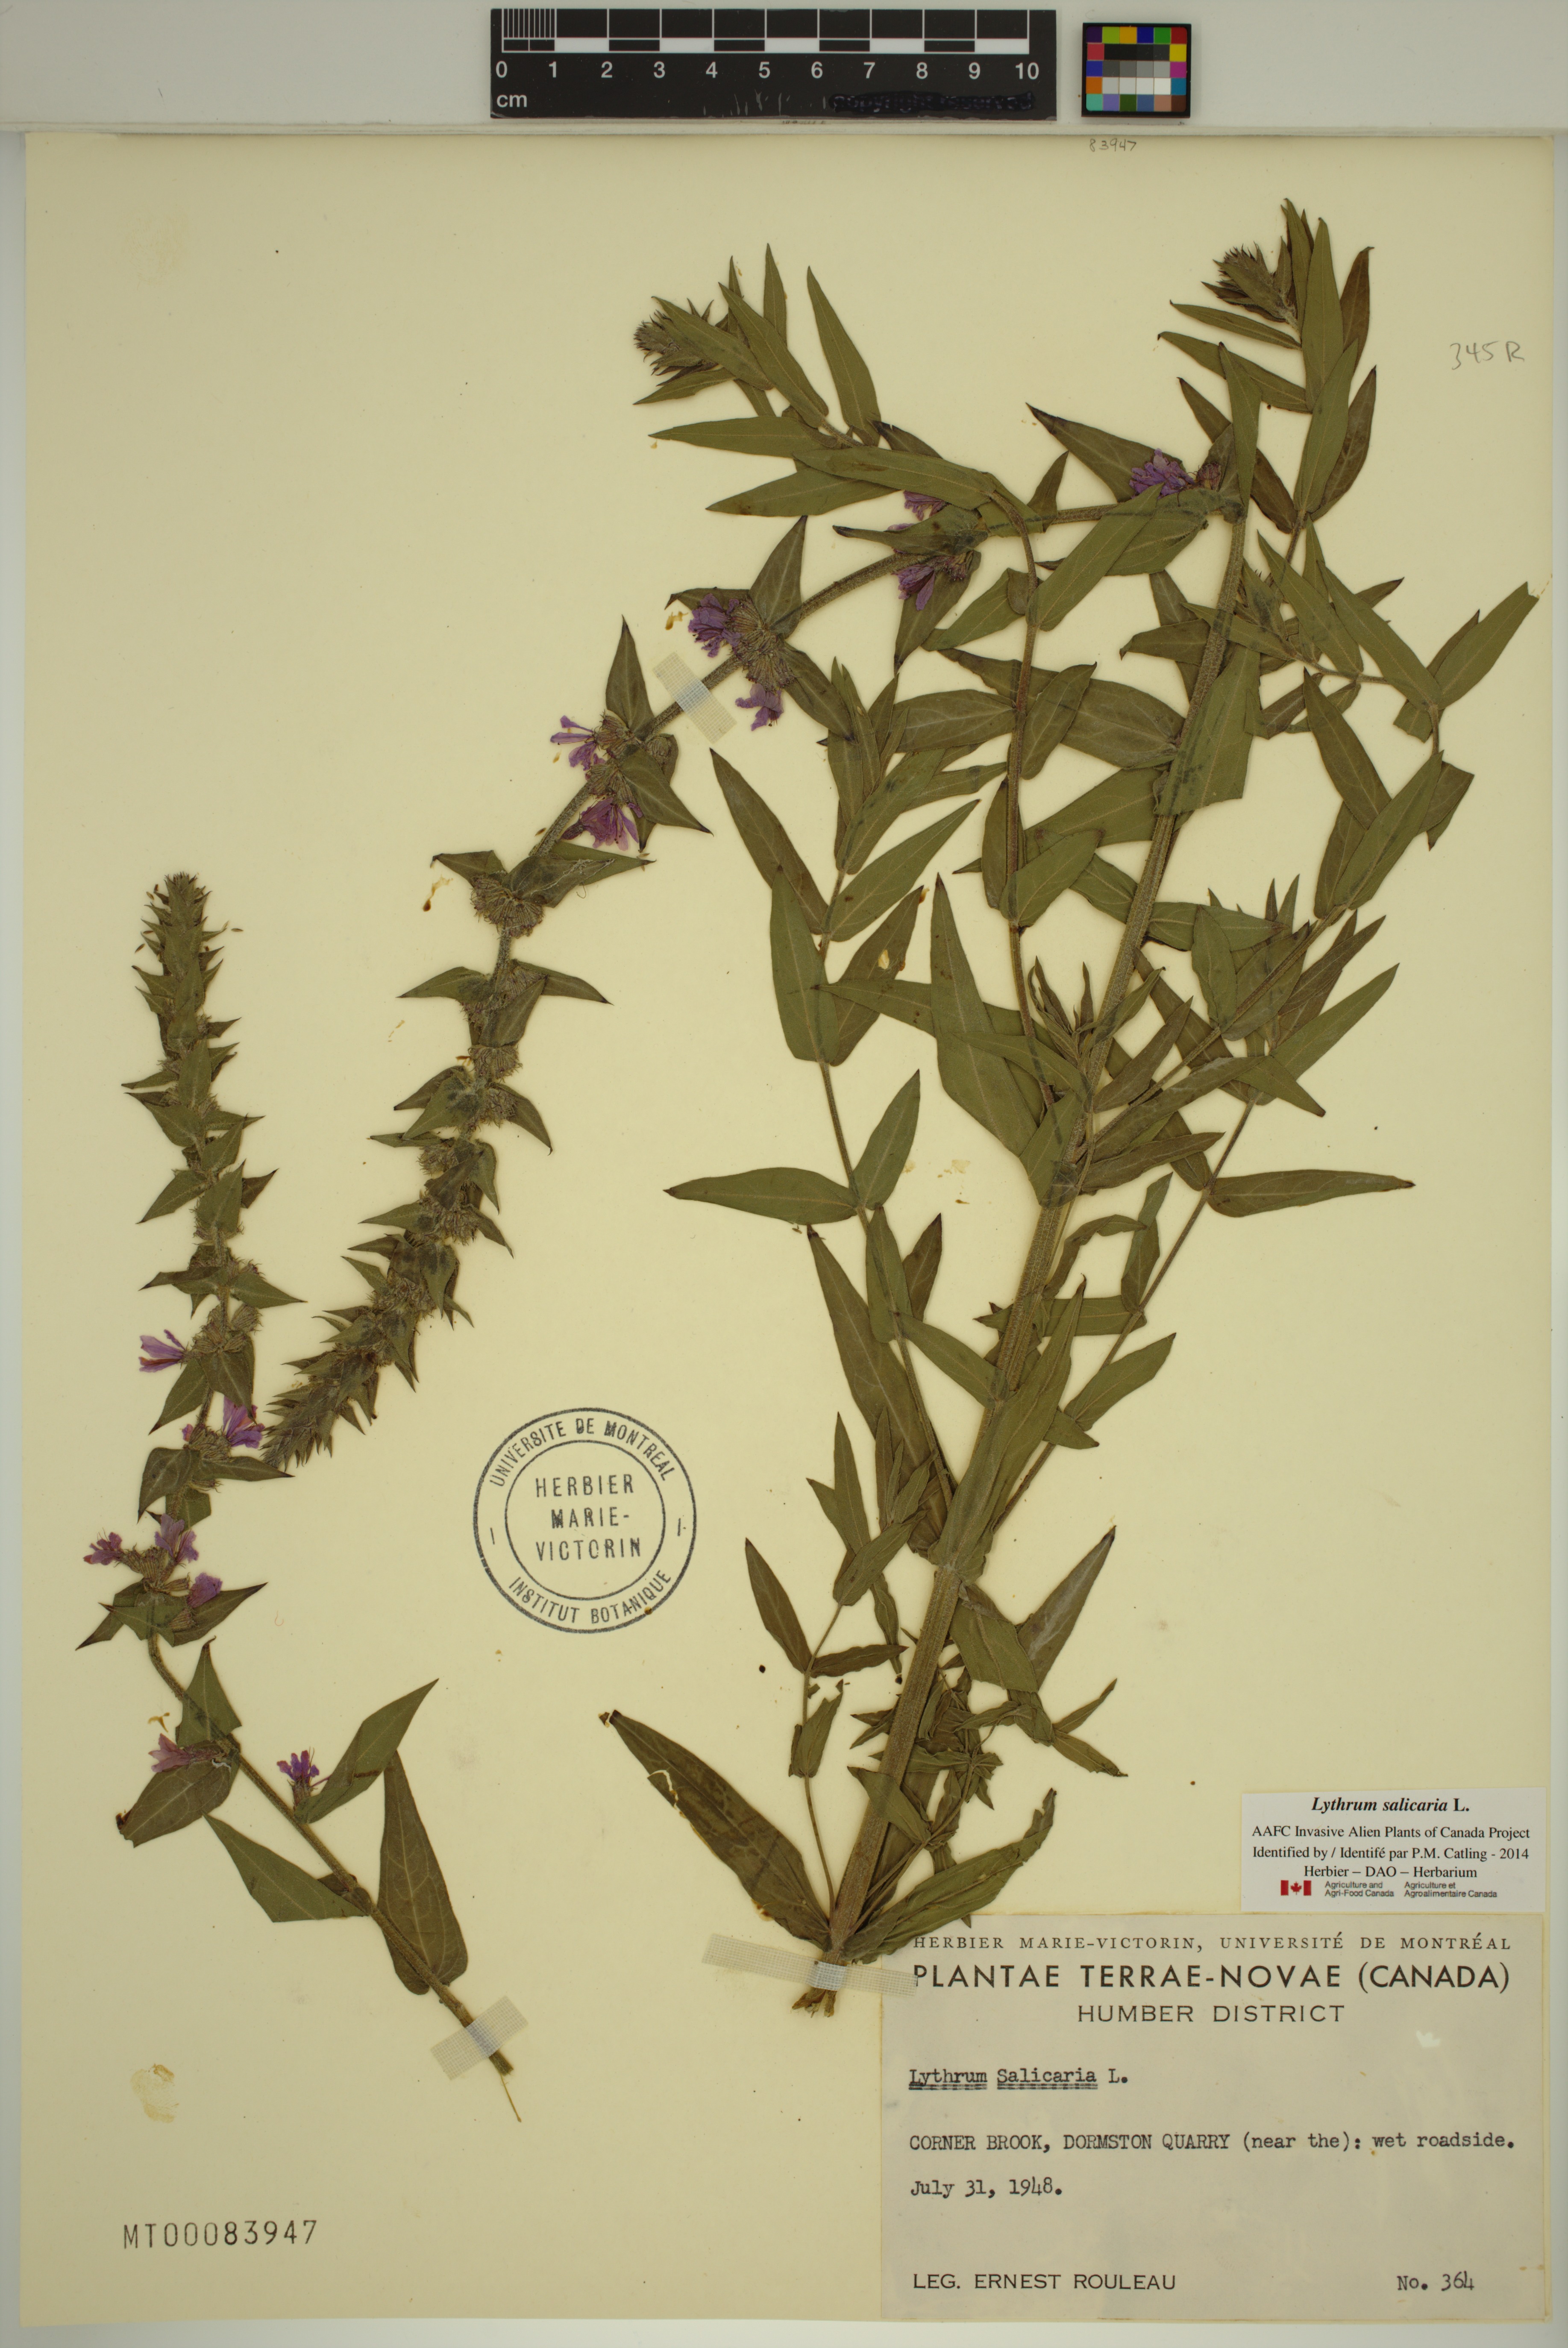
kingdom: Plantae
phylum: Tracheophyta
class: Magnoliopsida
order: Myrtales
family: Lythraceae
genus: Lythrum
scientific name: Lythrum salicaria
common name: Purple loosestrife
